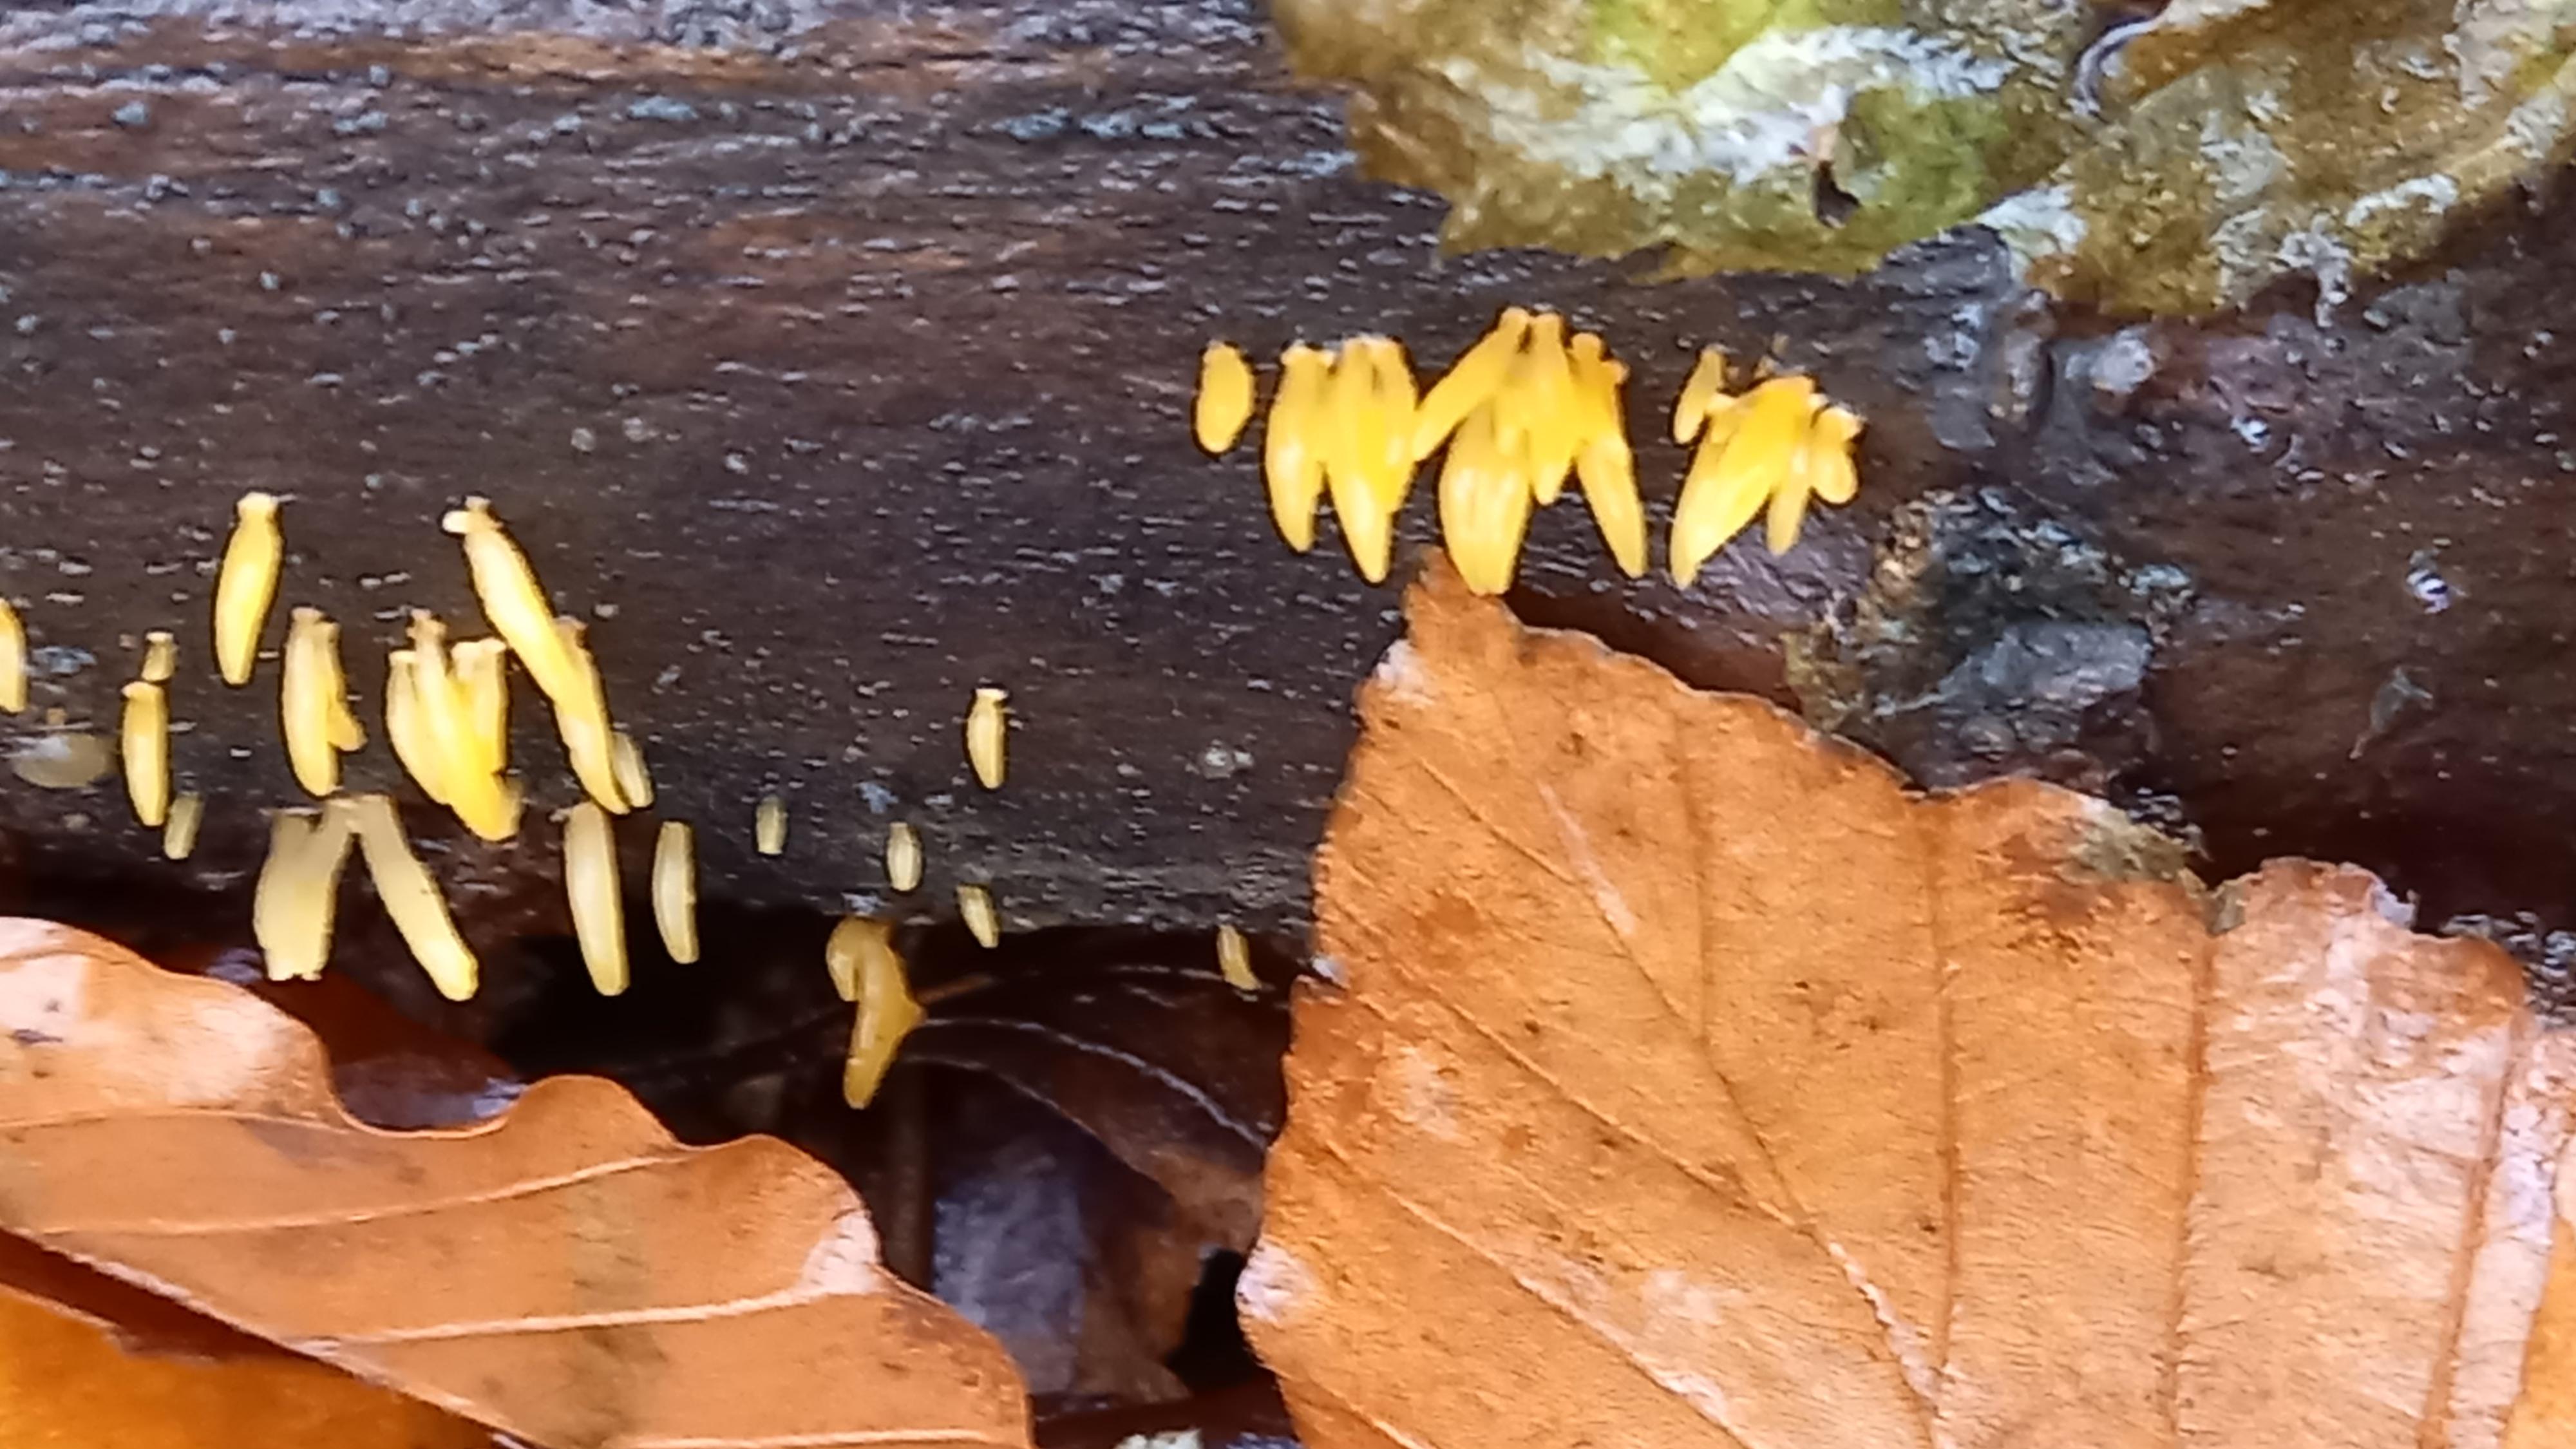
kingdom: Fungi
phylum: Basidiomycota
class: Dacrymycetes
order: Dacrymycetales
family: Dacrymycetaceae
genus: Calocera
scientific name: Calocera cornea
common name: liden guldgaffel
